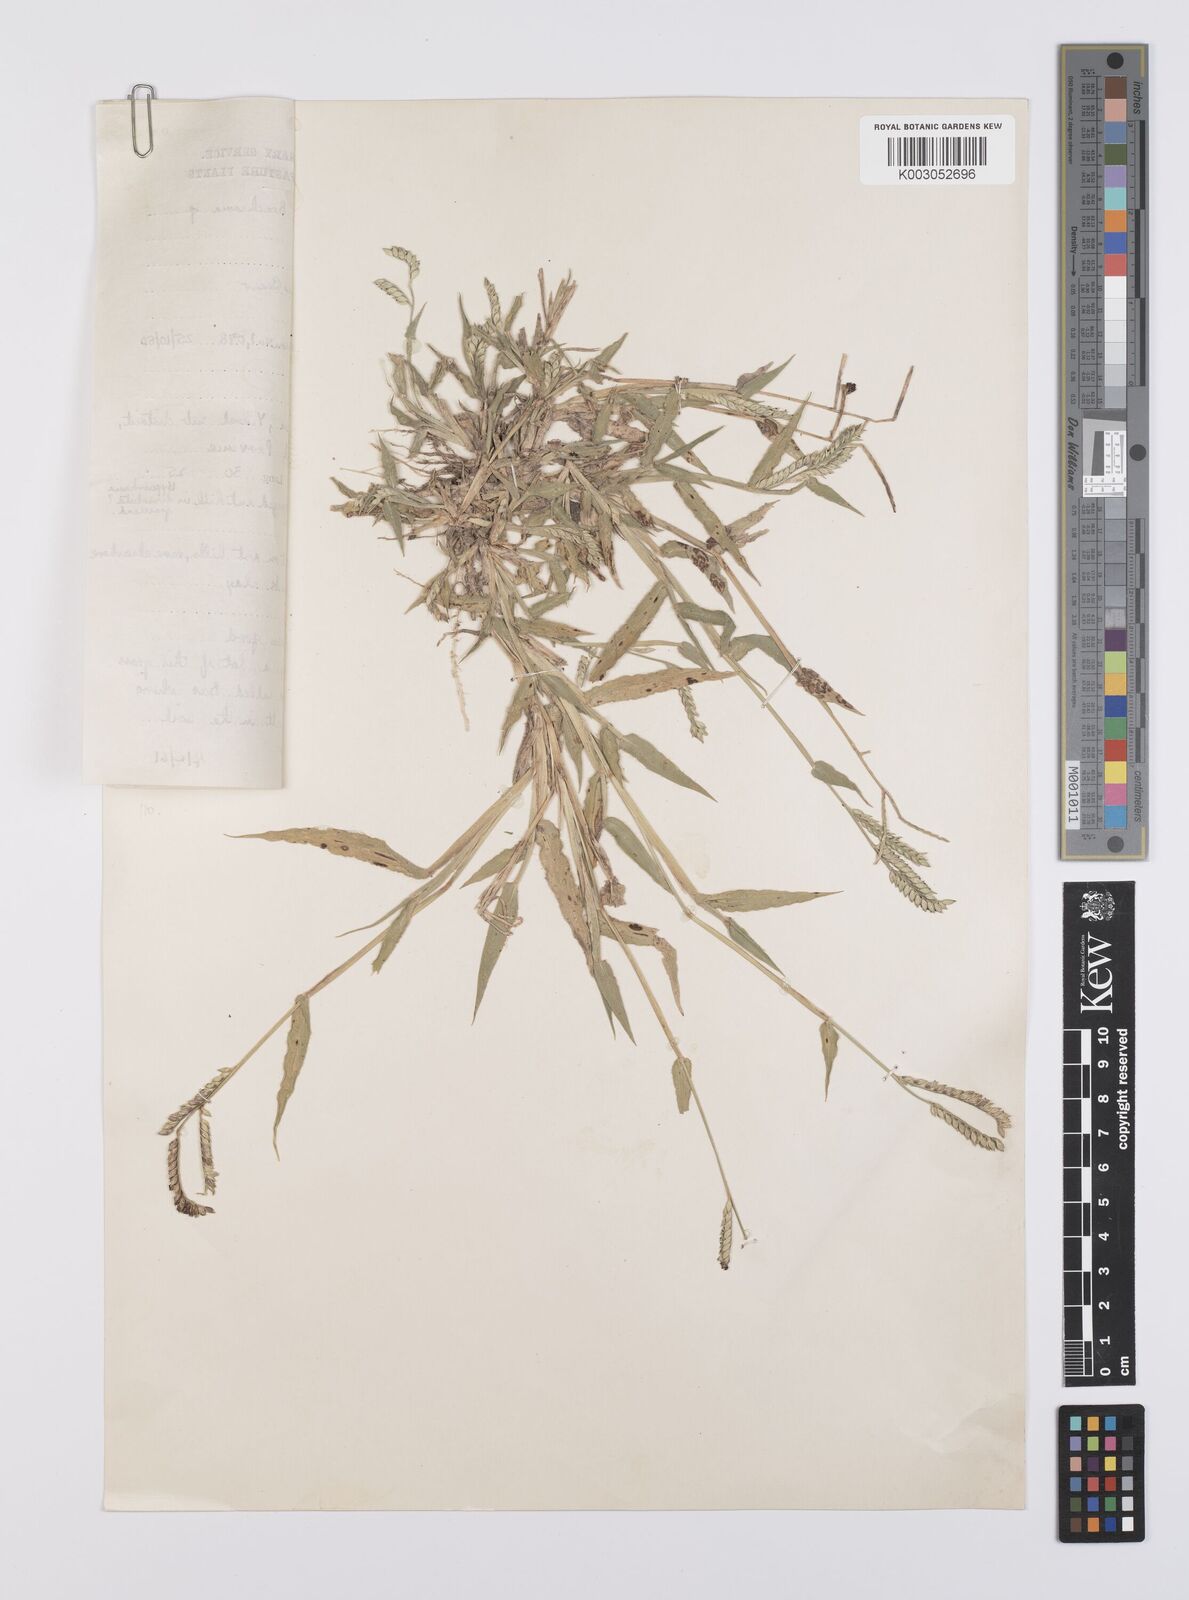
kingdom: Plantae
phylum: Tracheophyta
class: Liliopsida
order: Poales
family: Poaceae
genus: Urochloa
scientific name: Urochloa panicoides
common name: Sharp-flowered signal-grass
